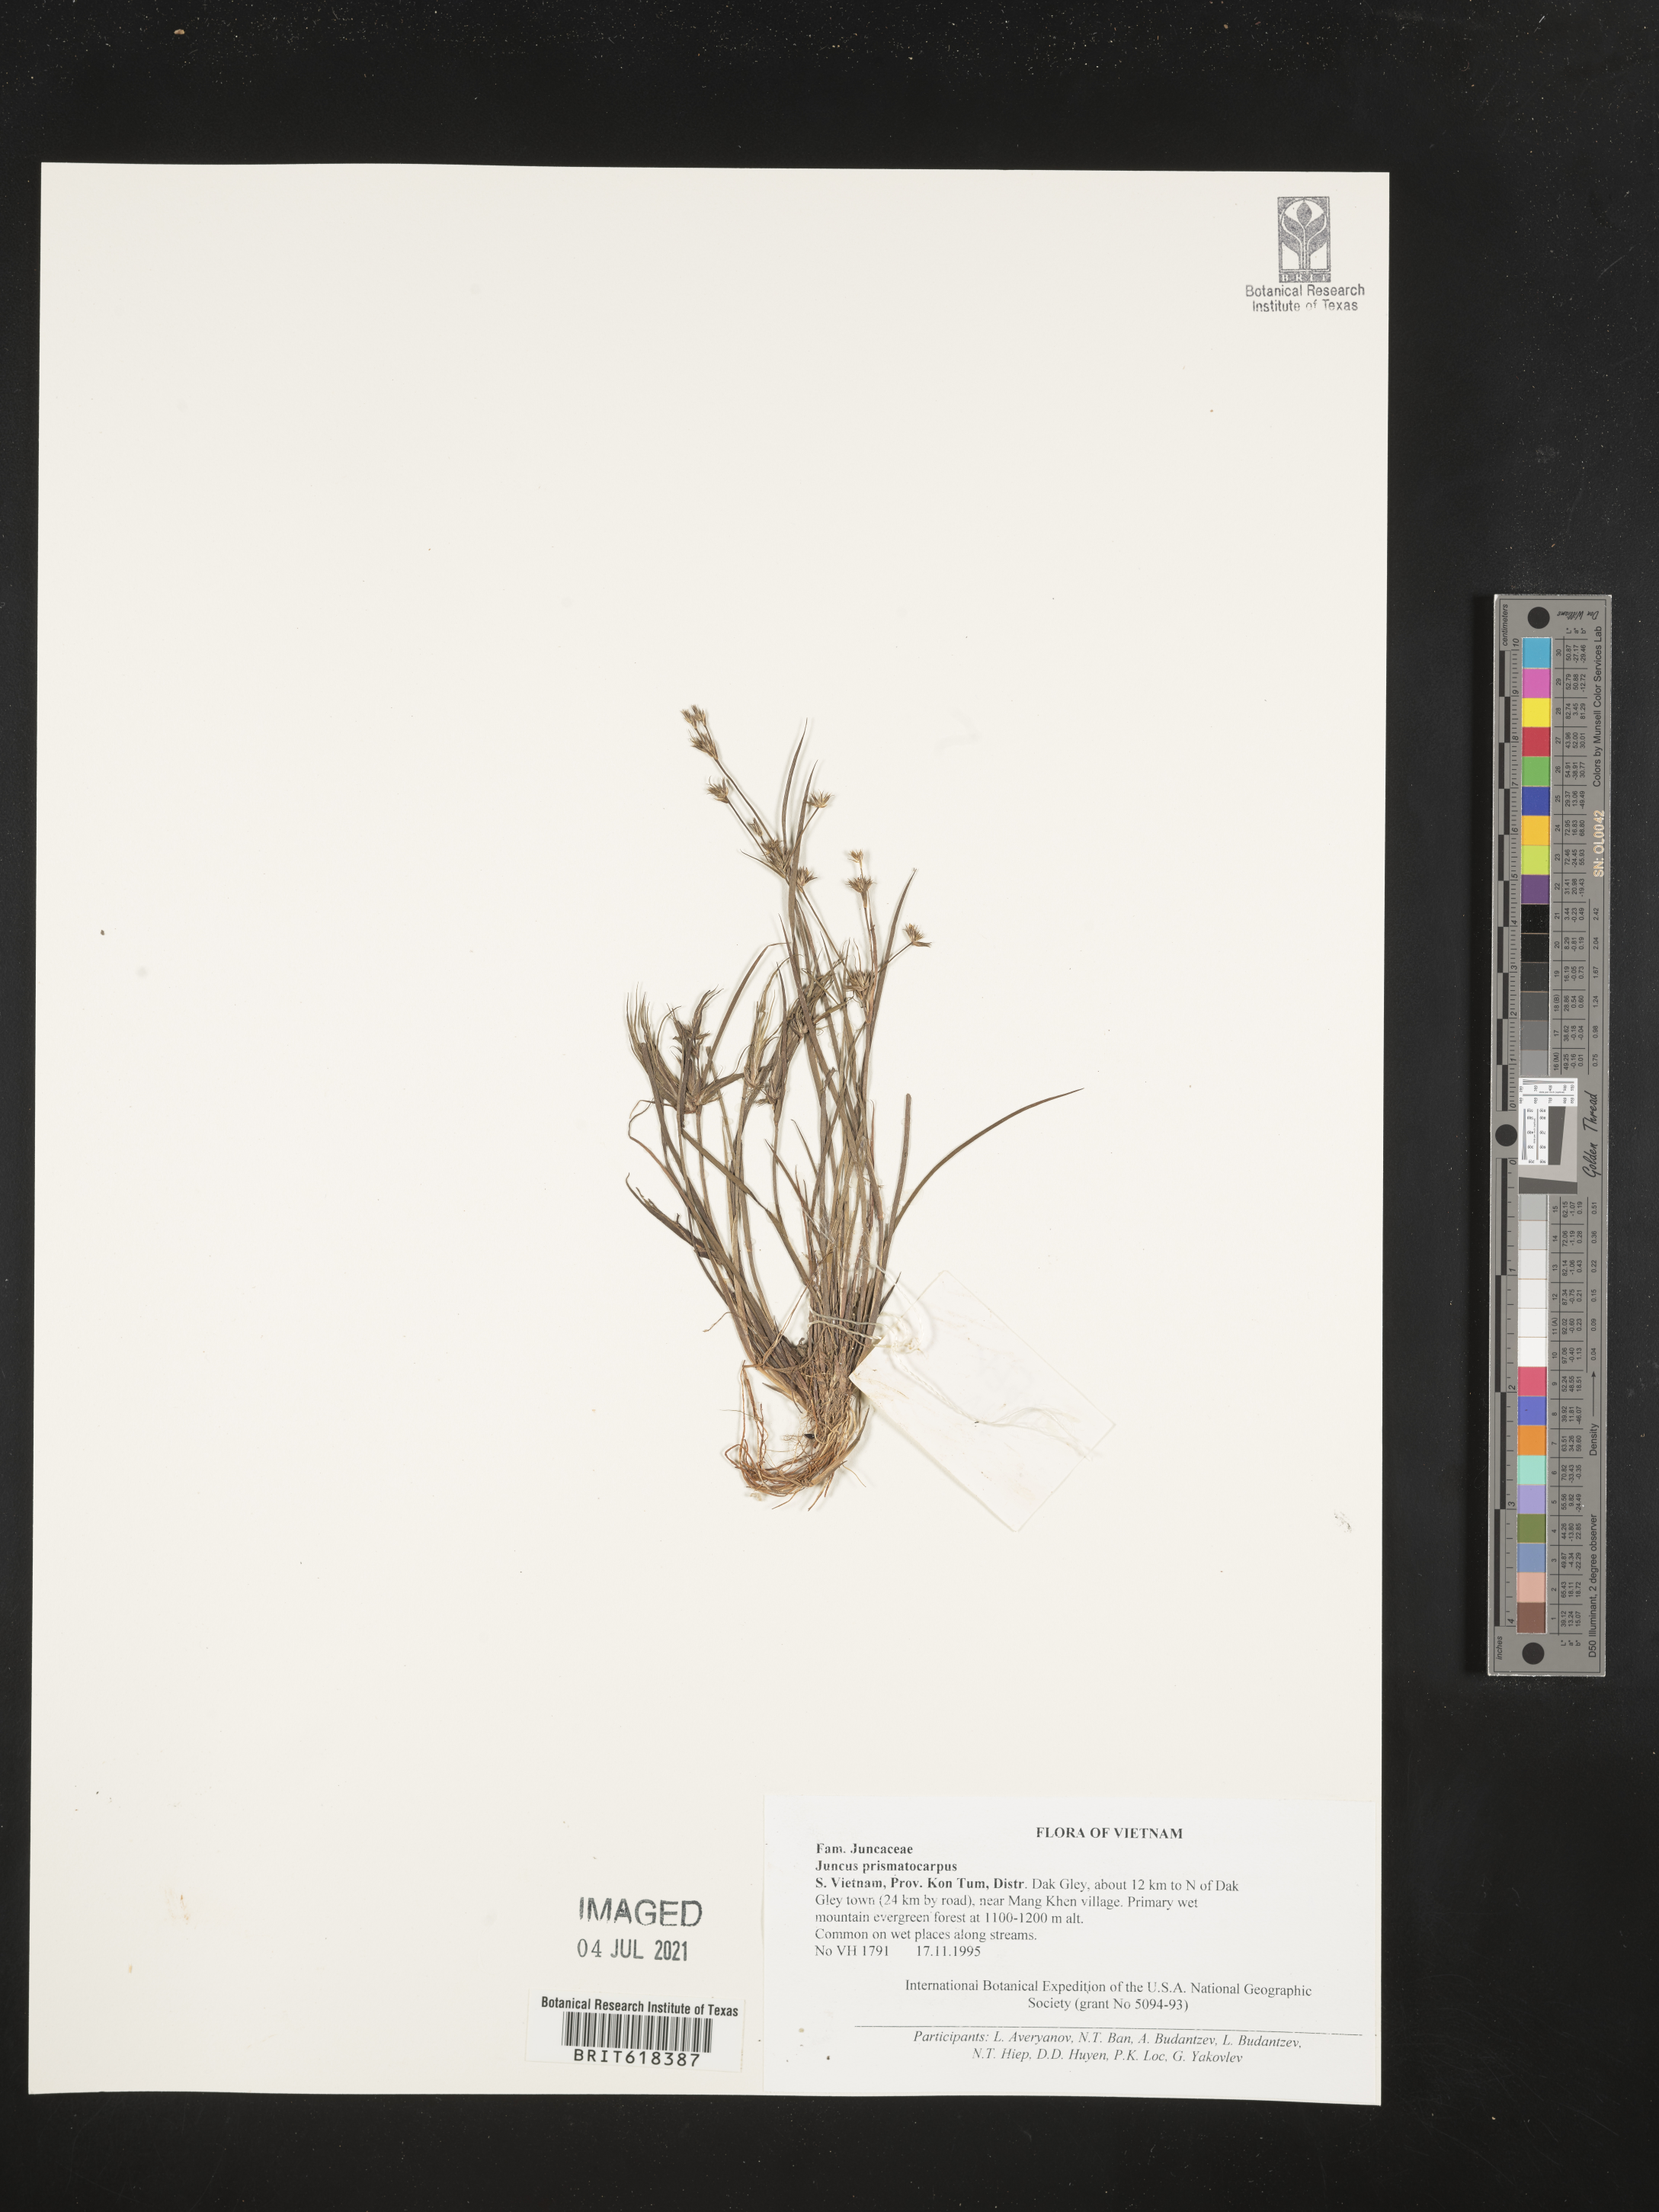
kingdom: Plantae
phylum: Tracheophyta
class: Liliopsida
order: Poales
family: Juncaceae
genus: Juncus
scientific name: Juncus prismatocarpus
